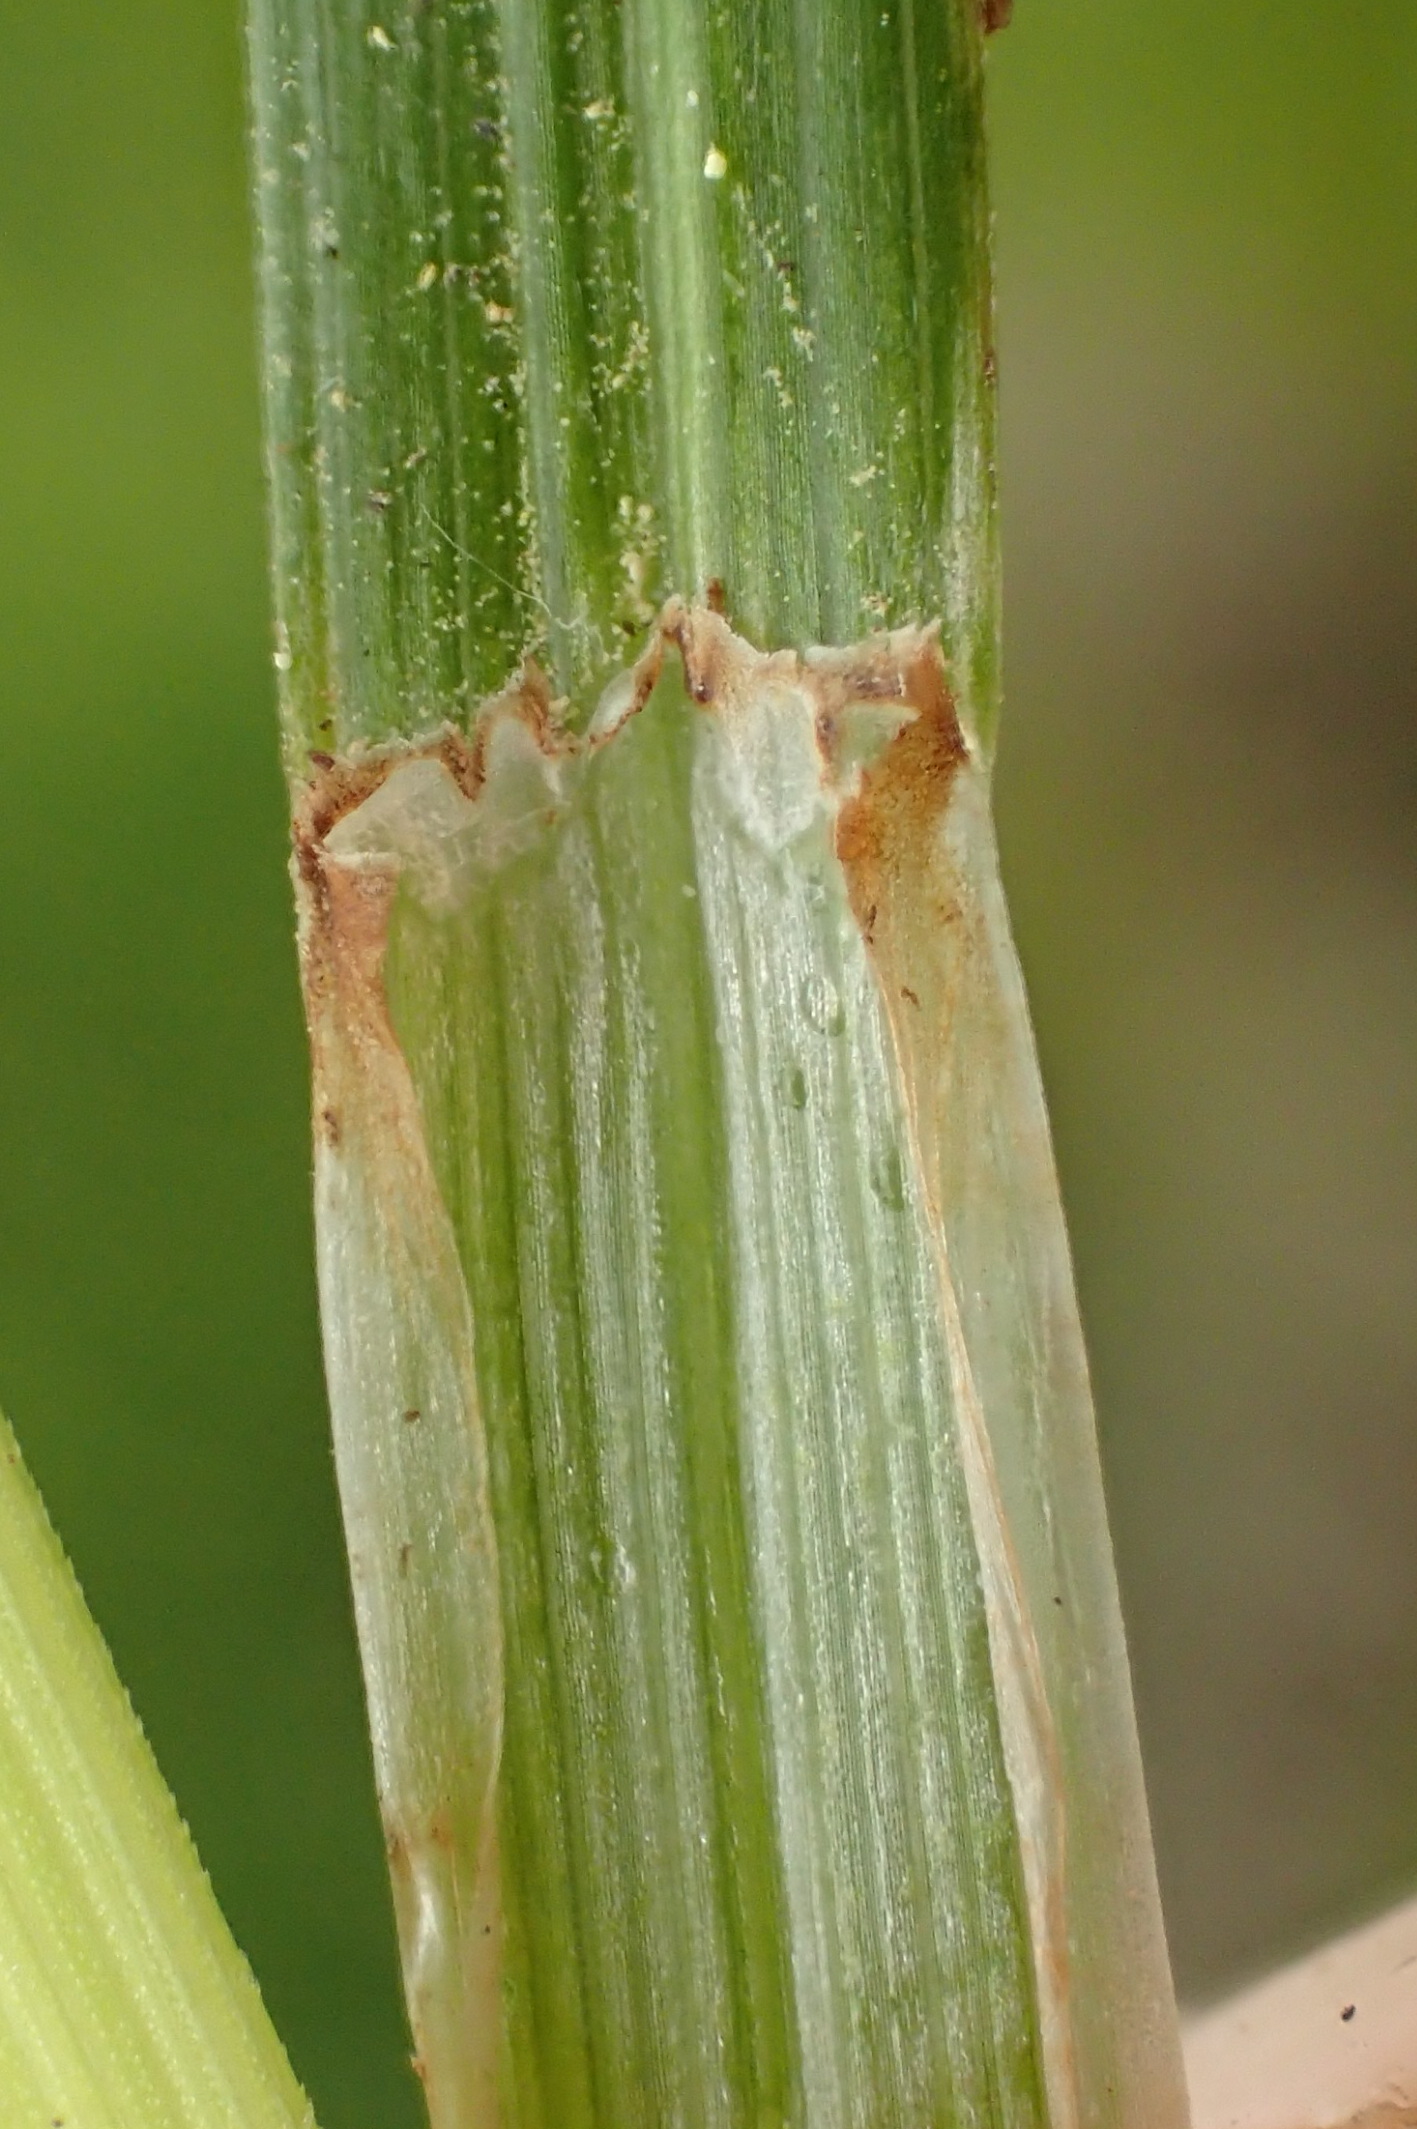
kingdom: Plantae
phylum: Tracheophyta
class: Liliopsida
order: Poales
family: Cyperaceae
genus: Carex
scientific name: Carex cespitosa
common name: Tue-star
